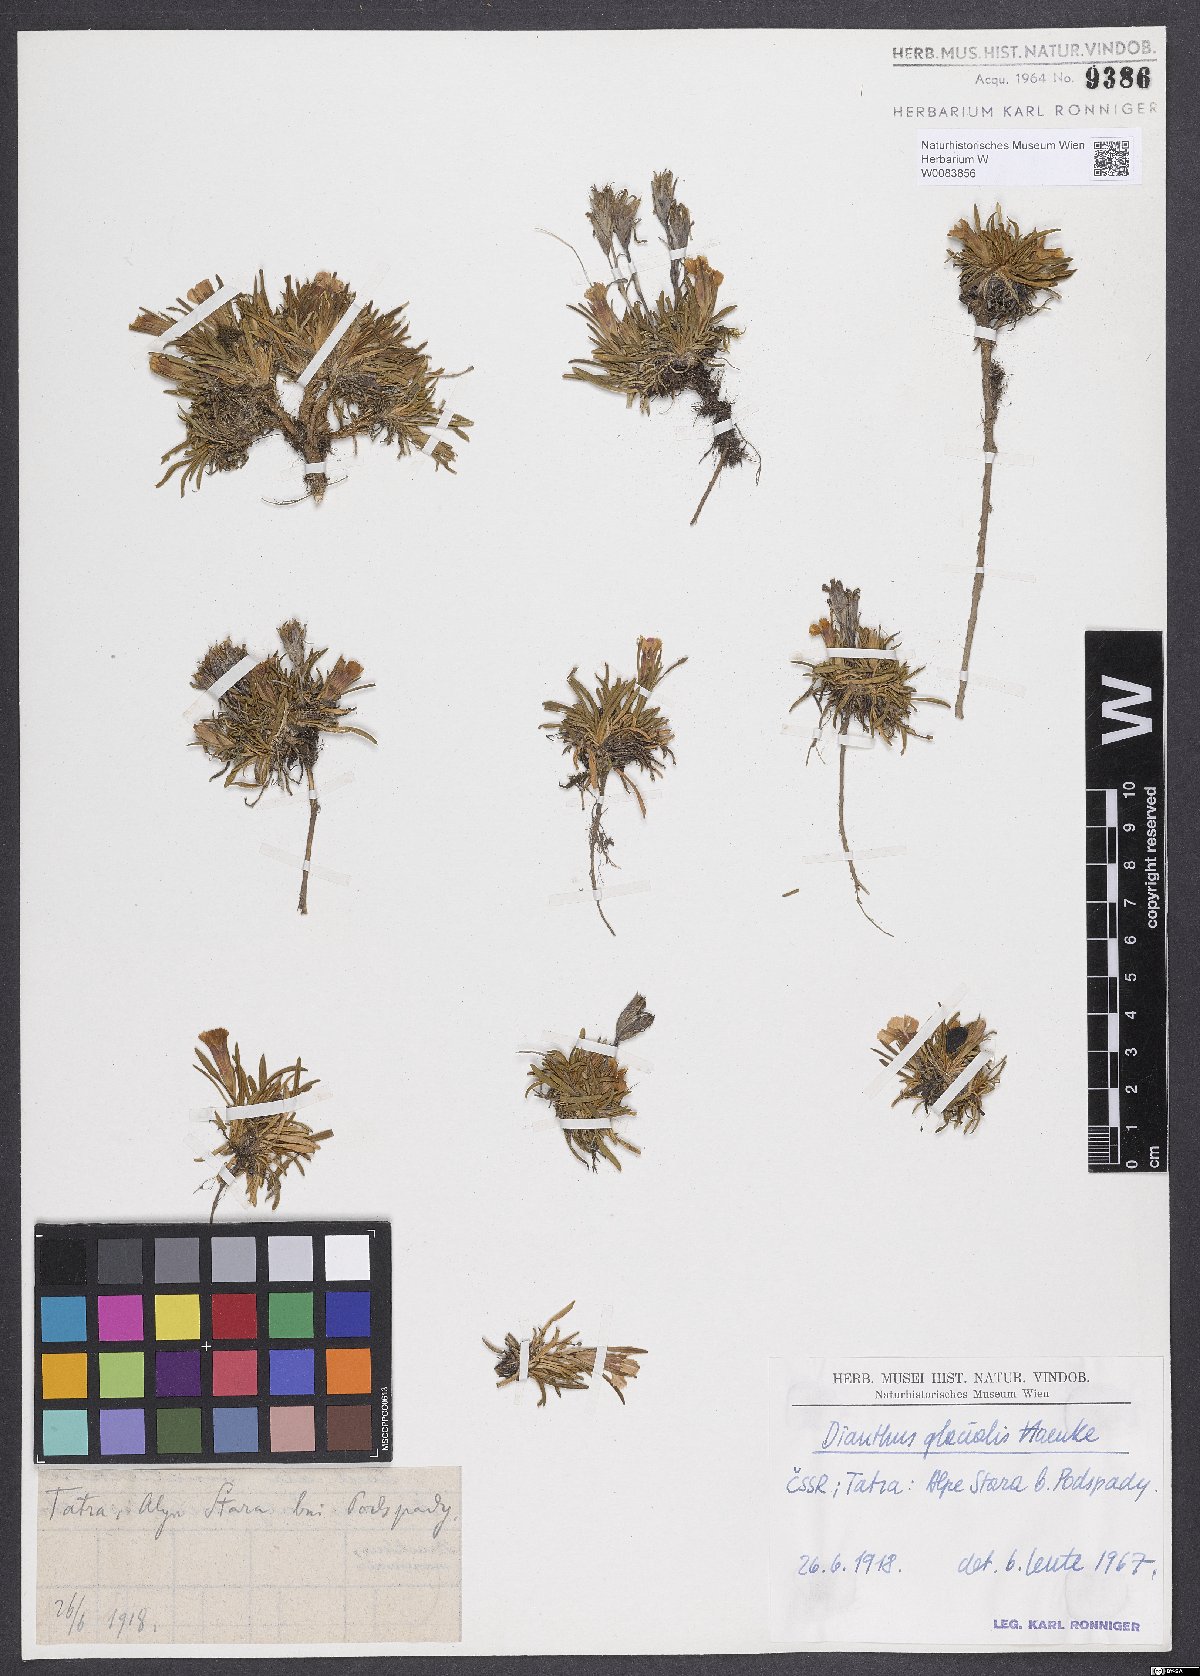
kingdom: Plantae
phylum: Tracheophyta
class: Magnoliopsida
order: Caryophyllales
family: Caryophyllaceae
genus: Dianthus
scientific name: Dianthus glacialis
